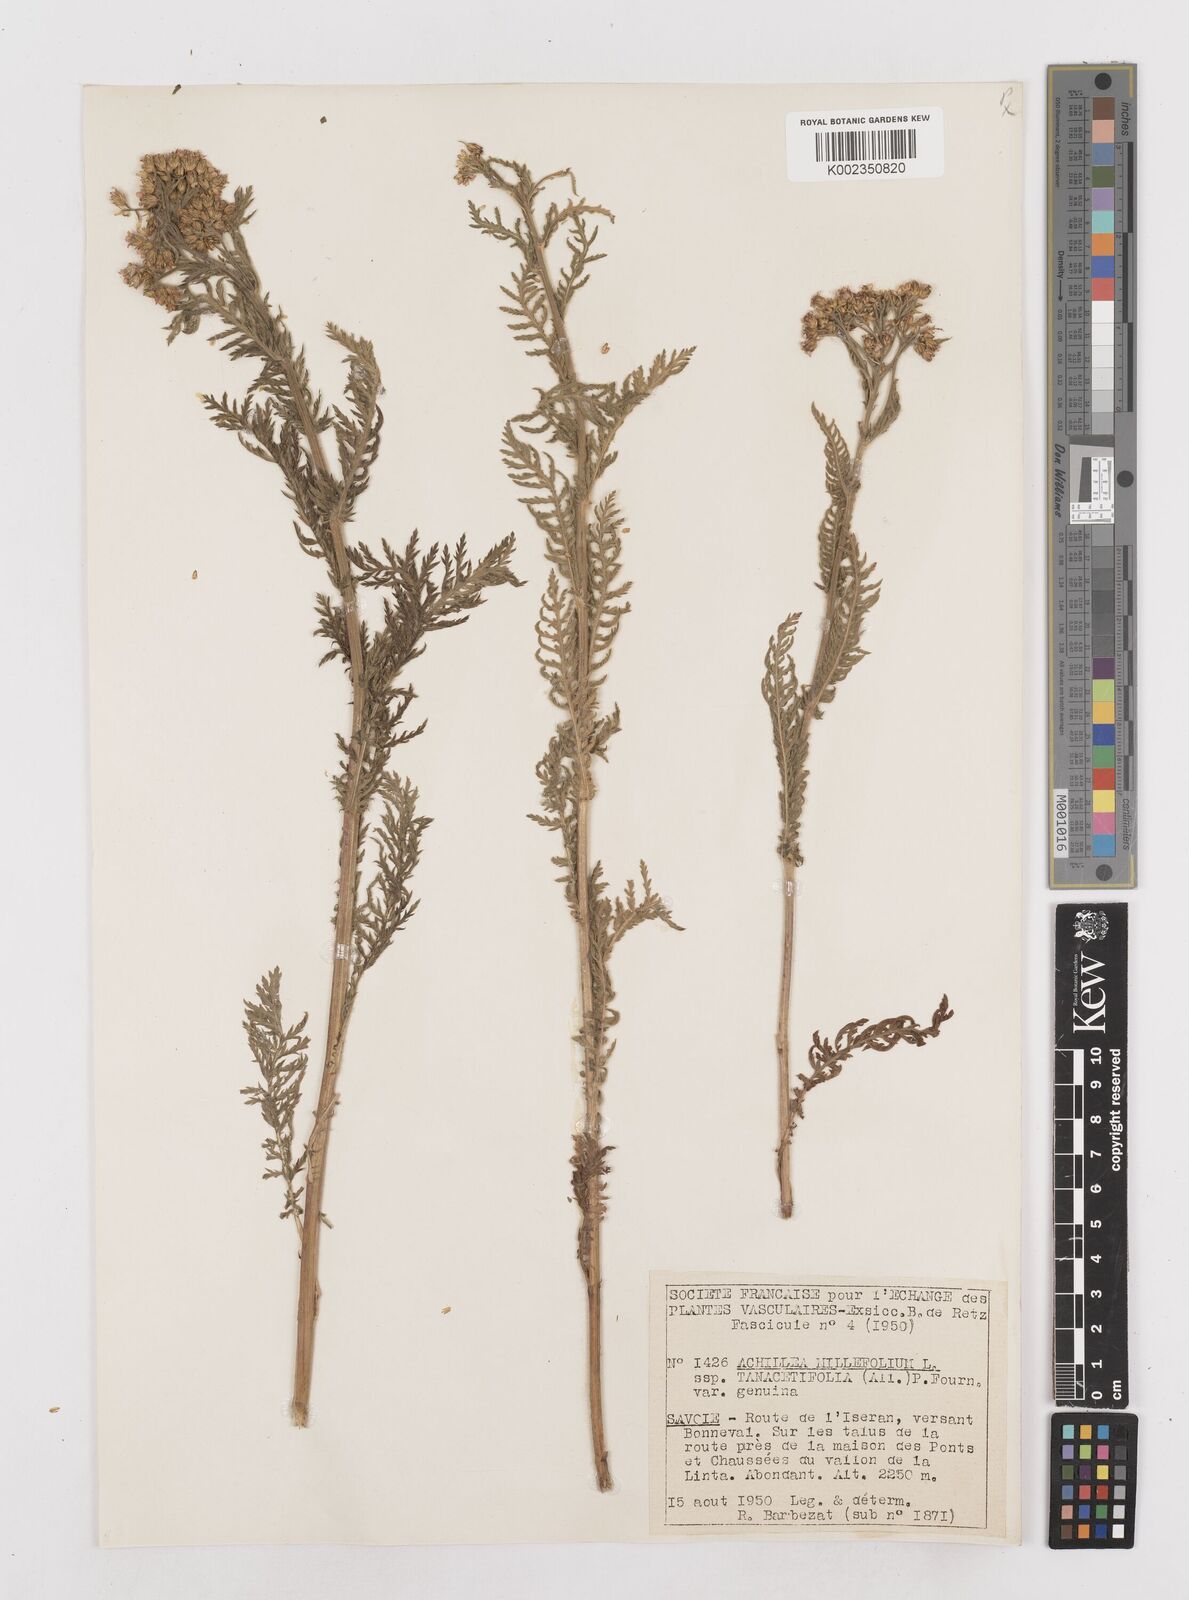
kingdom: Plantae
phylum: Tracheophyta
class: Magnoliopsida
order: Asterales
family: Asteraceae
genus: Achillea
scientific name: Achillea distans
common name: Tall yarrow
